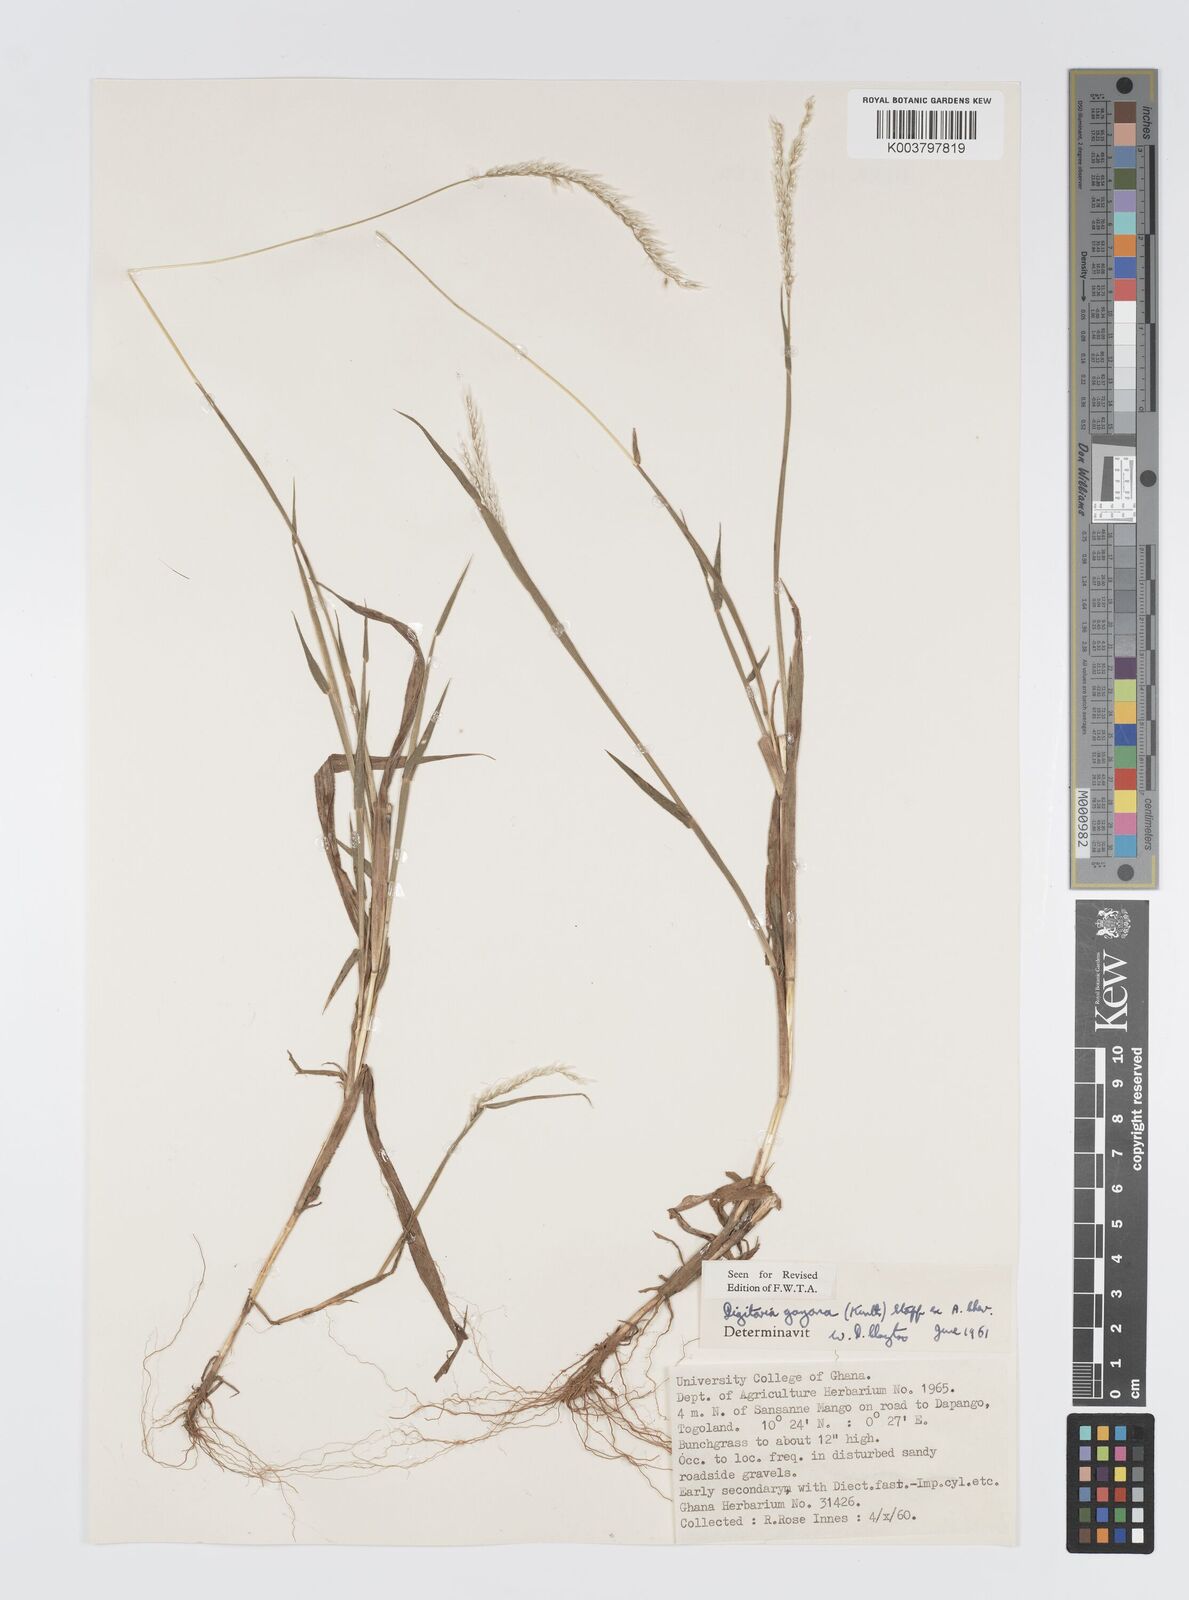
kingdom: Plantae
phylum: Tracheophyta
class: Liliopsida
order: Poales
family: Poaceae
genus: Digitaria
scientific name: Digitaria gayana
